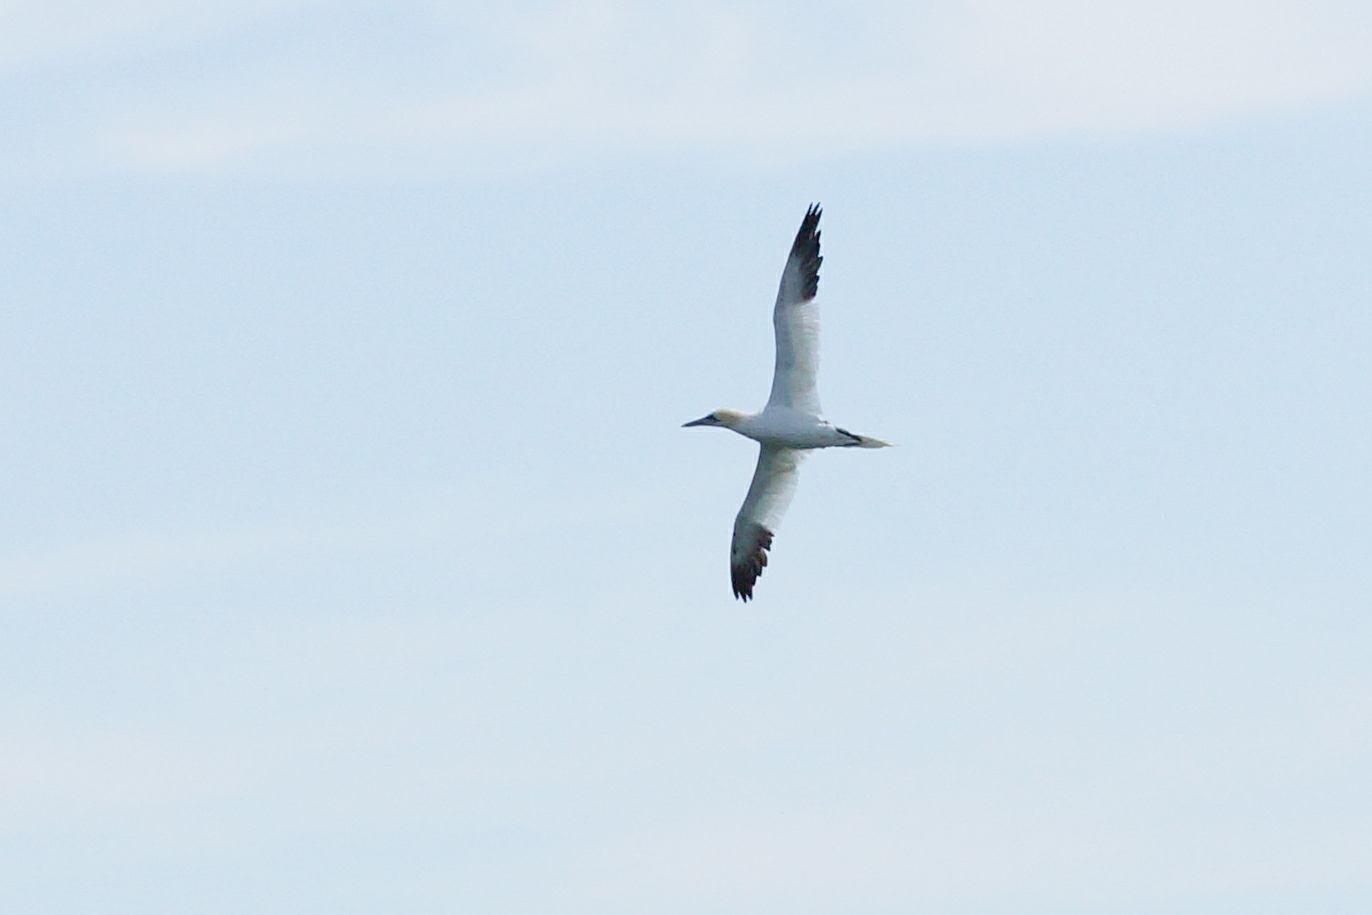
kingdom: Animalia
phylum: Chordata
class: Aves
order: Suliformes
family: Sulidae
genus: Morus
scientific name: Morus bassanus
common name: Sule
